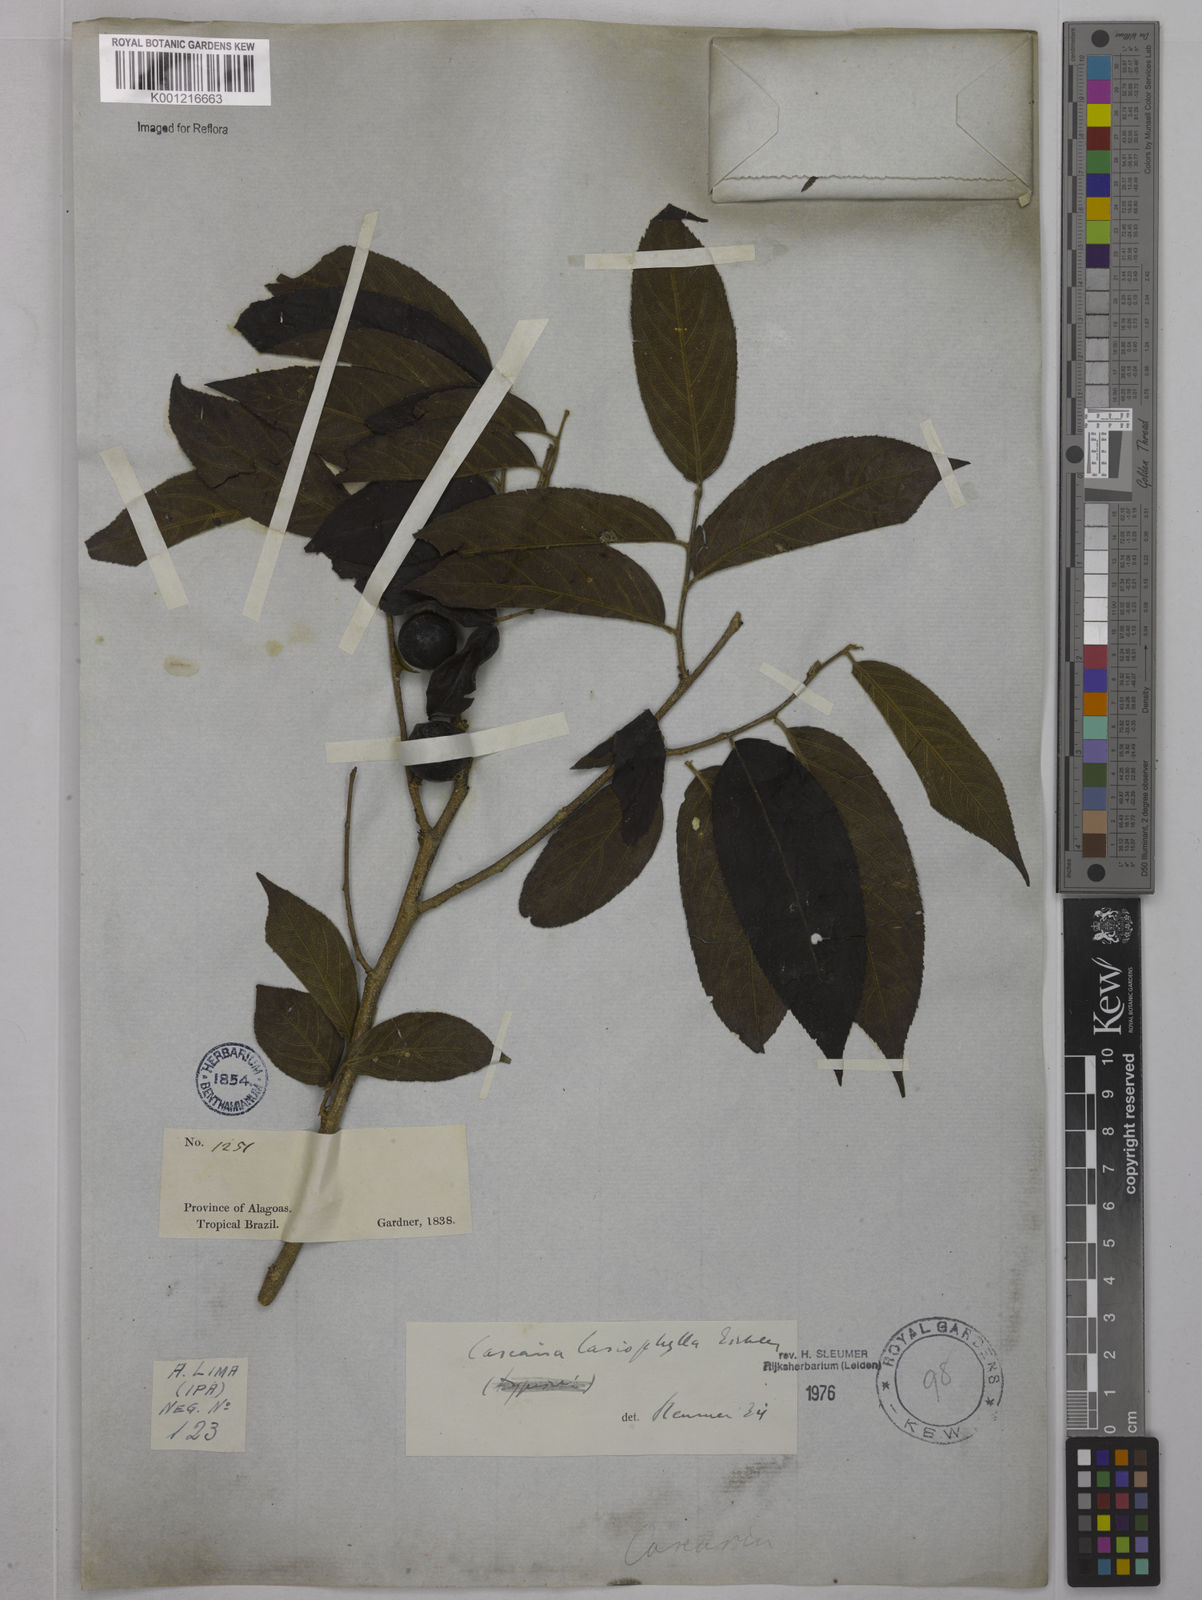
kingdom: Plantae
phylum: Tracheophyta
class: Magnoliopsida
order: Malpighiales
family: Salicaceae
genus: Casearia
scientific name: Casearia lasiophylla
